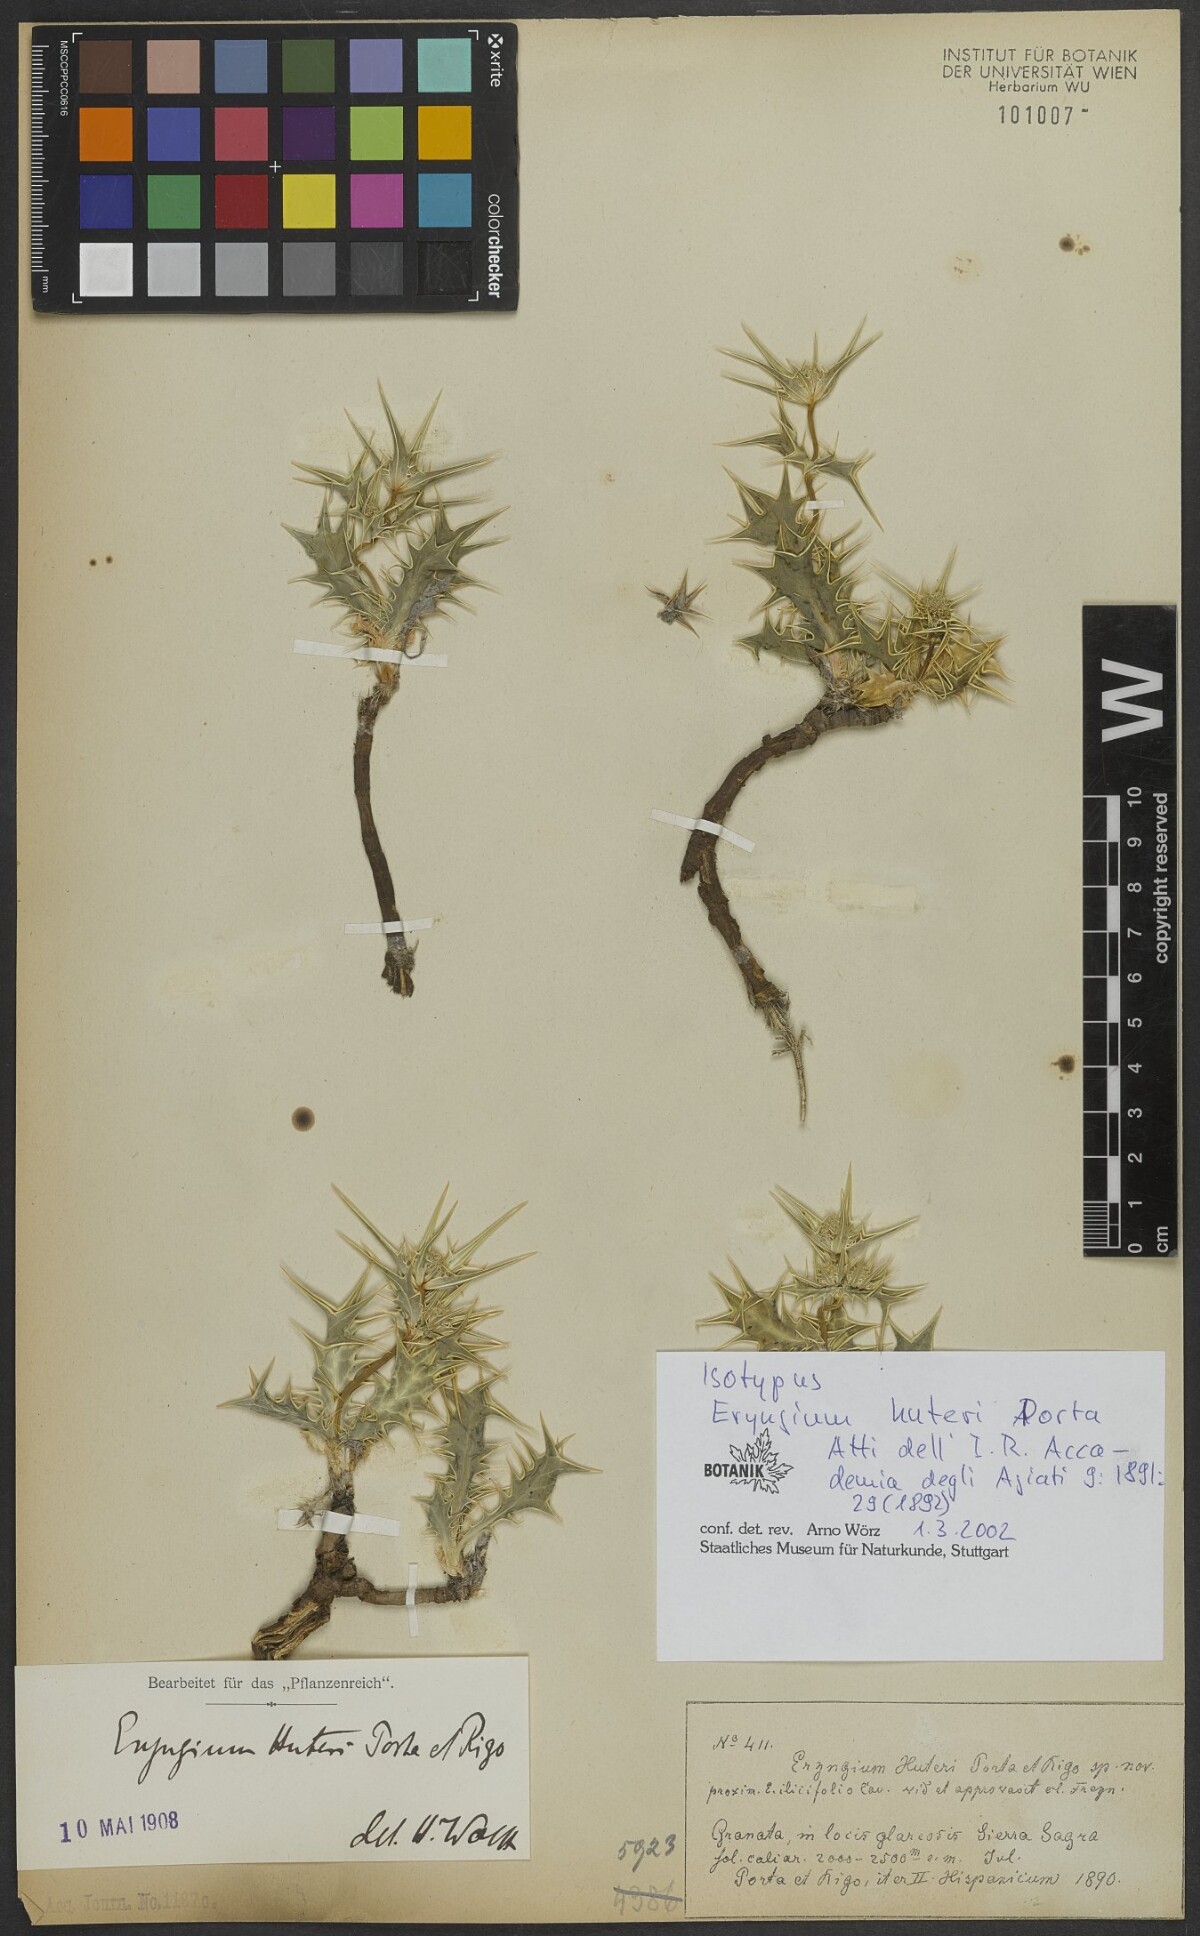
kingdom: Plantae
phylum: Tracheophyta
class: Magnoliopsida
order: Apiales
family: Apiaceae
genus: Eryngium
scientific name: Eryngium huteri
